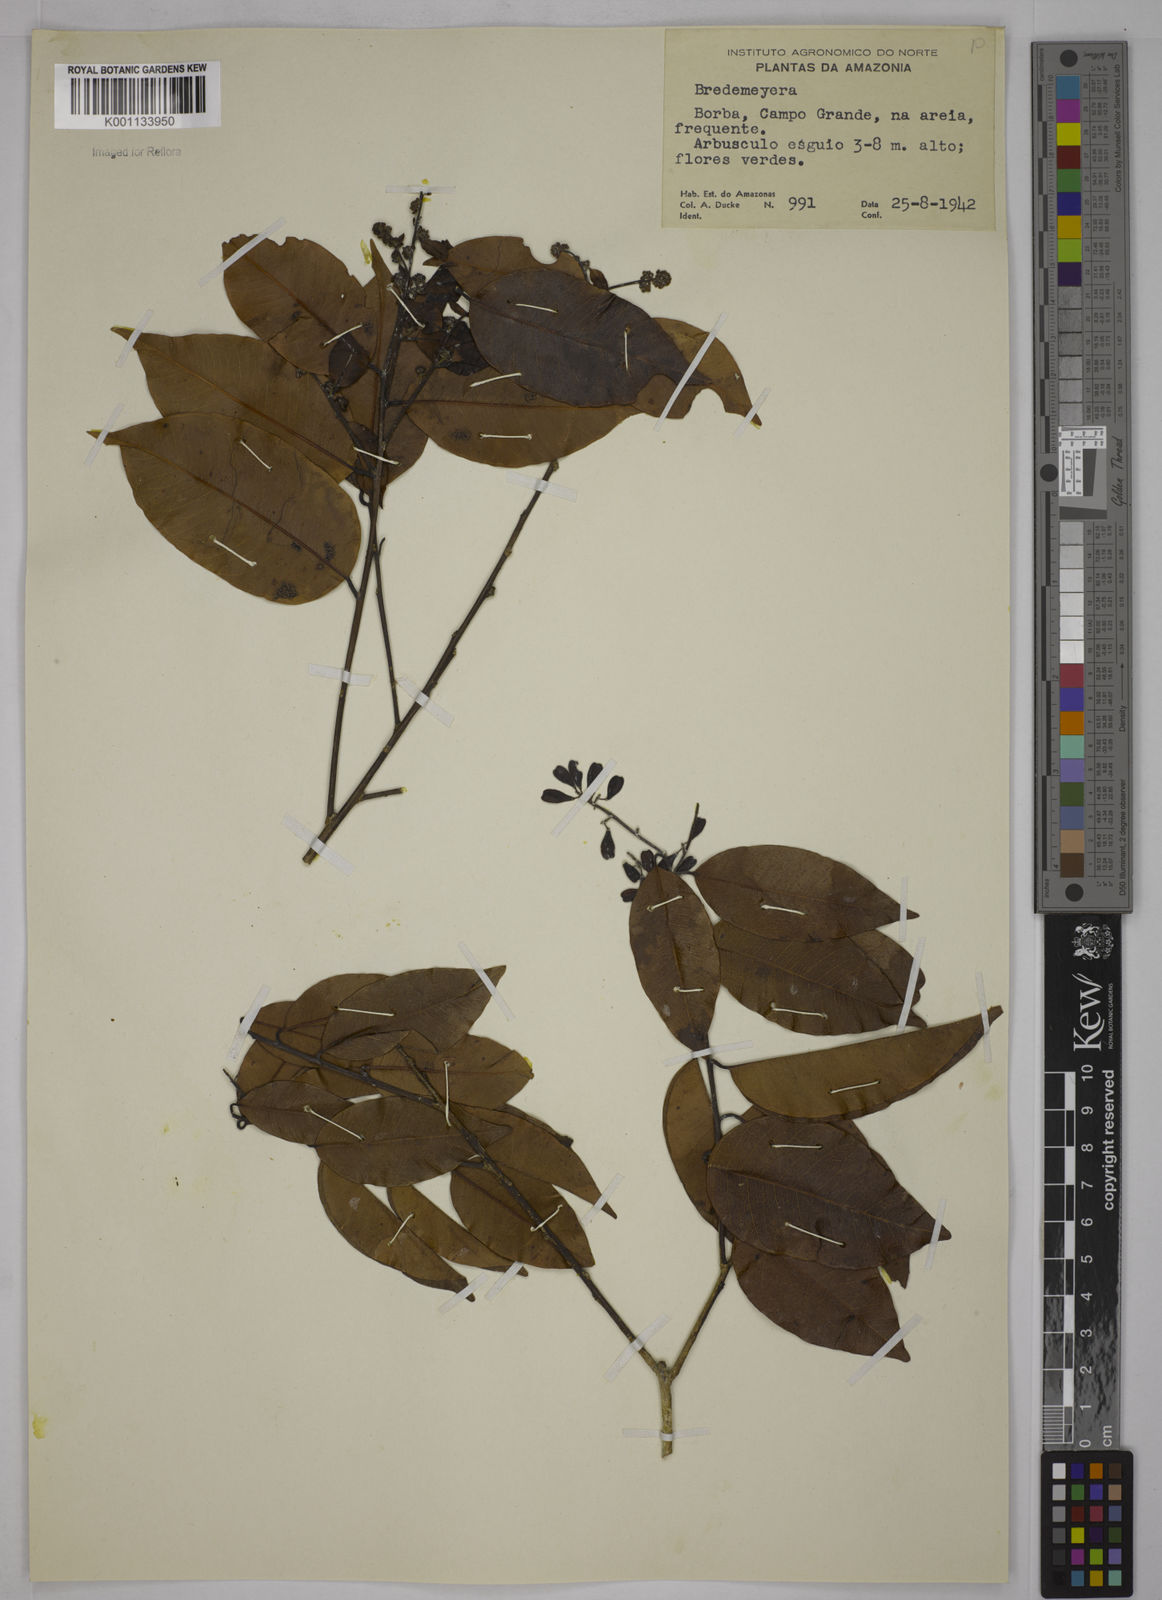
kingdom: Plantae
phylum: Tracheophyta
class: Magnoliopsida
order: Fabales
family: Polygalaceae
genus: Bredemeyera
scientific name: Bredemeyera
